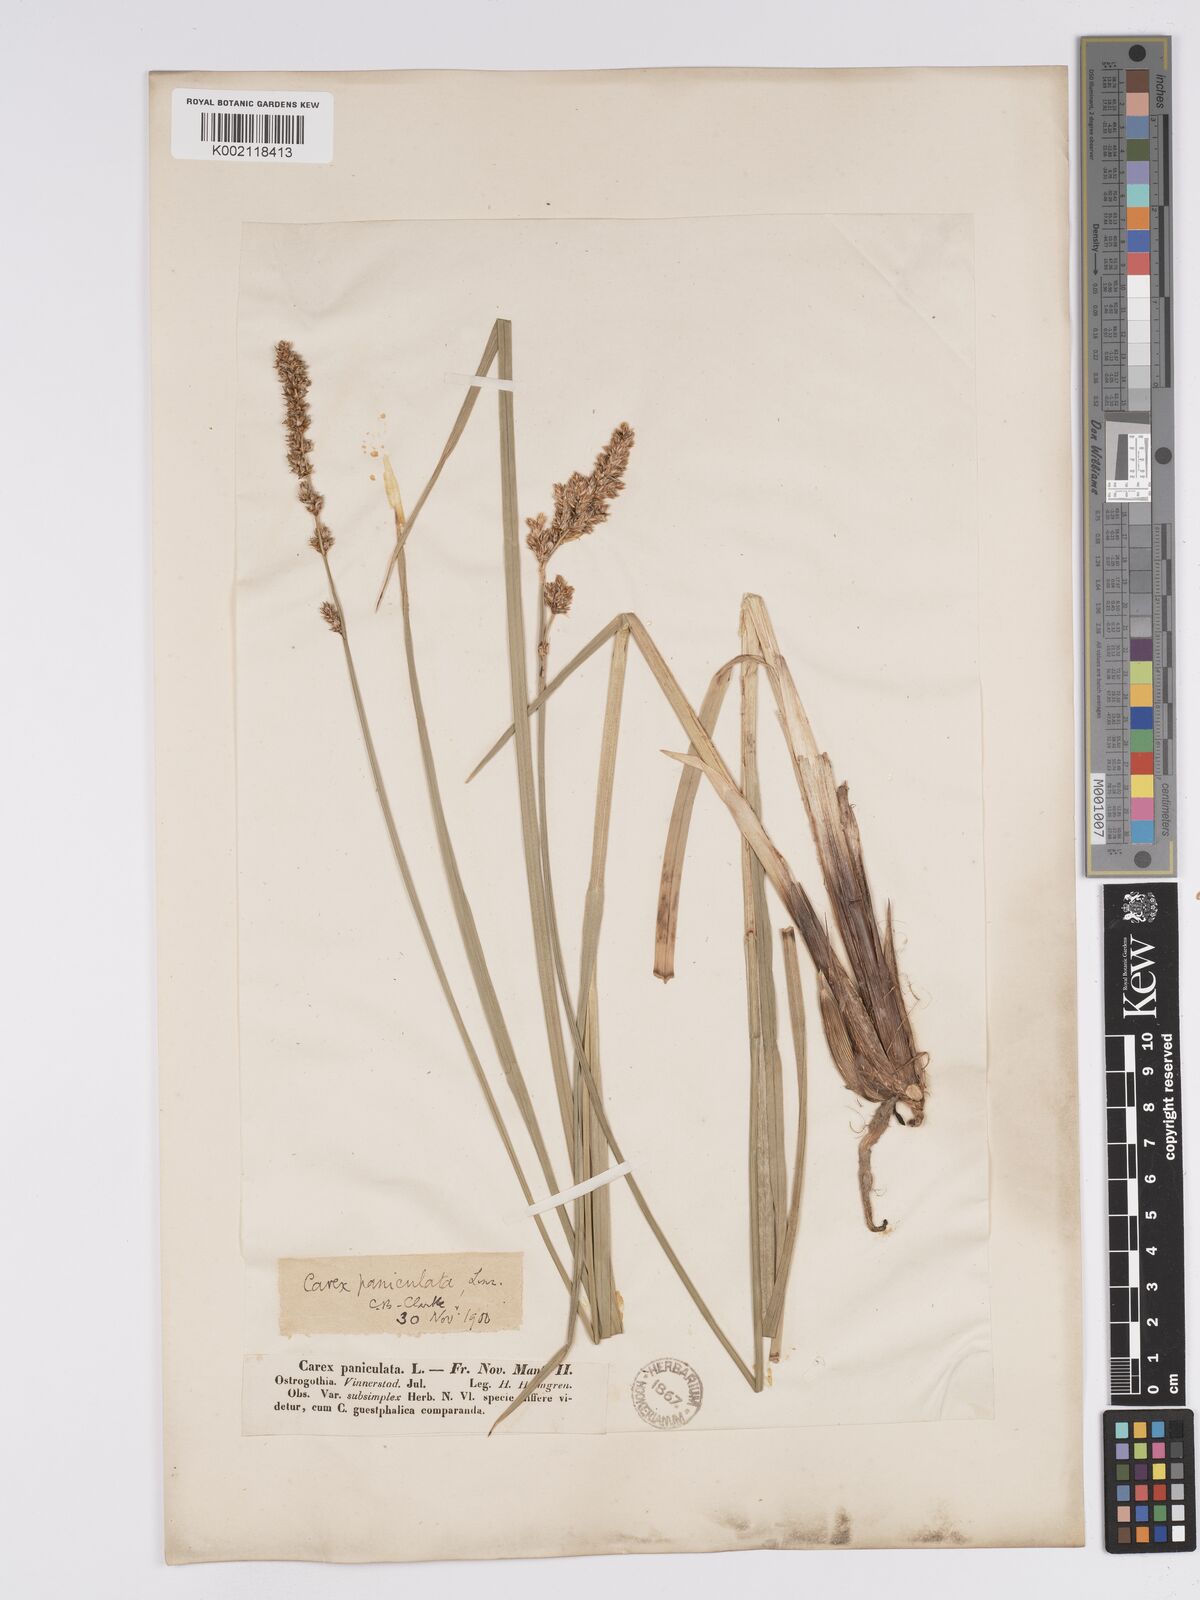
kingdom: Plantae
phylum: Tracheophyta
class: Liliopsida
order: Poales
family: Cyperaceae
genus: Carex
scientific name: Carex paniculata
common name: Greater tussock-sedge
